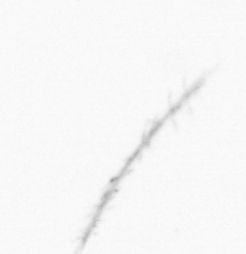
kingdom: Chromista
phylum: Ochrophyta
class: Bacillariophyceae
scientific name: Bacillariophyceae
